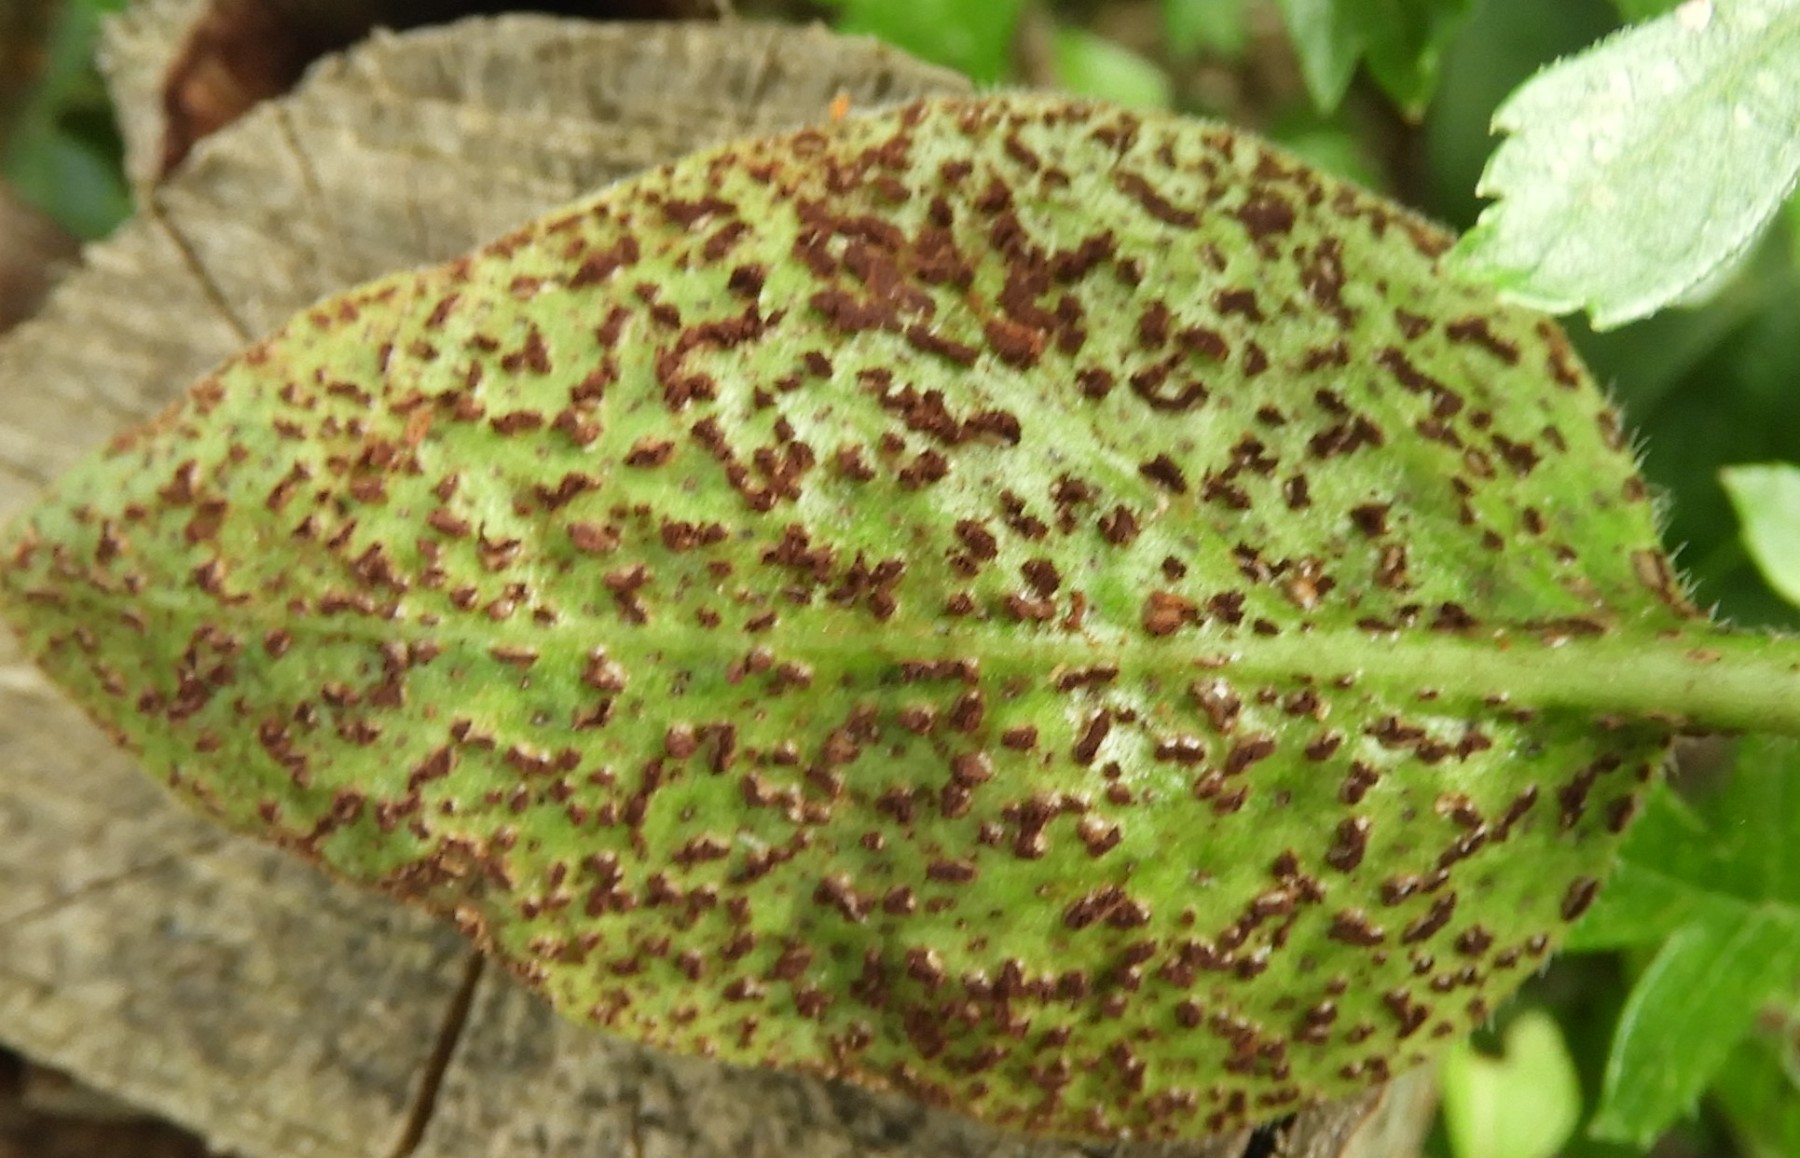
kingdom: Fungi
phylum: Basidiomycota
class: Pucciniomycetes
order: Pucciniales
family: Pucciniaceae
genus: Puccinia
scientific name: Puccinia vincae
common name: Periwinkle rust
